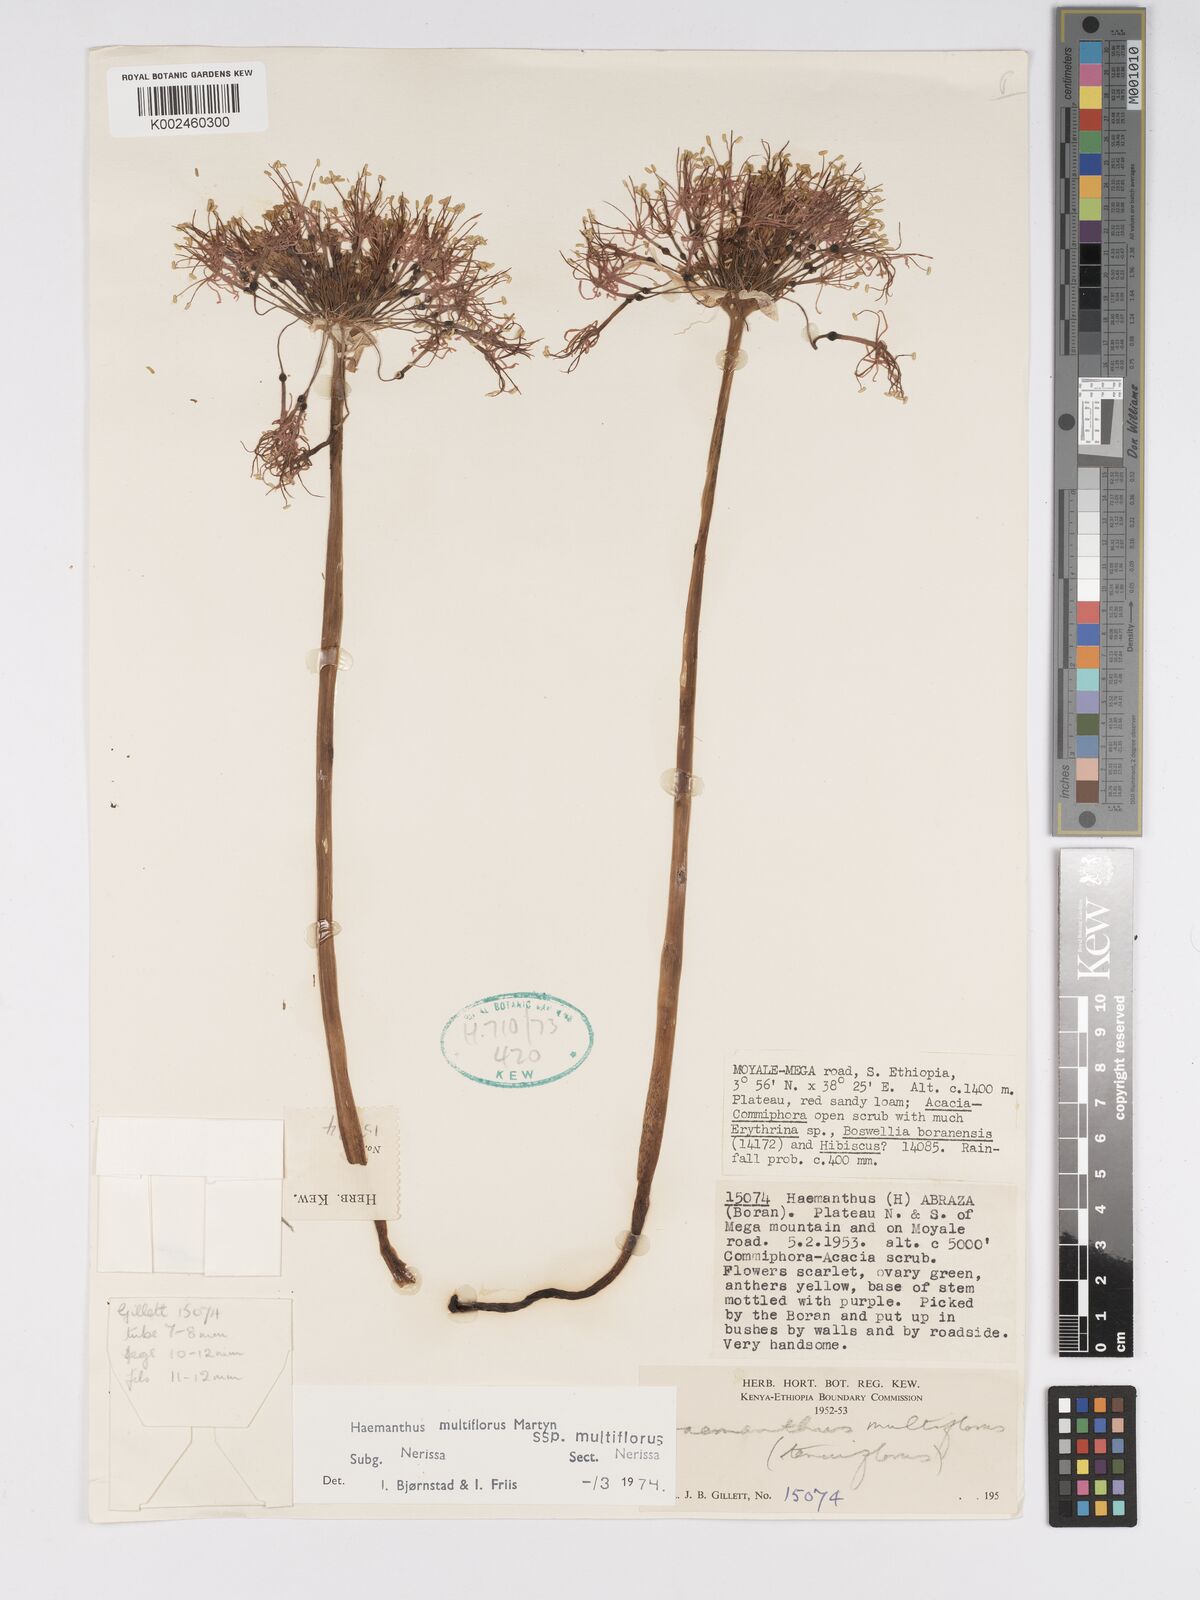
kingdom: Plantae
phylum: Tracheophyta
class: Liliopsida
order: Asparagales
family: Amaryllidaceae
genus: Scadoxus
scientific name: Scadoxus multiflorus
